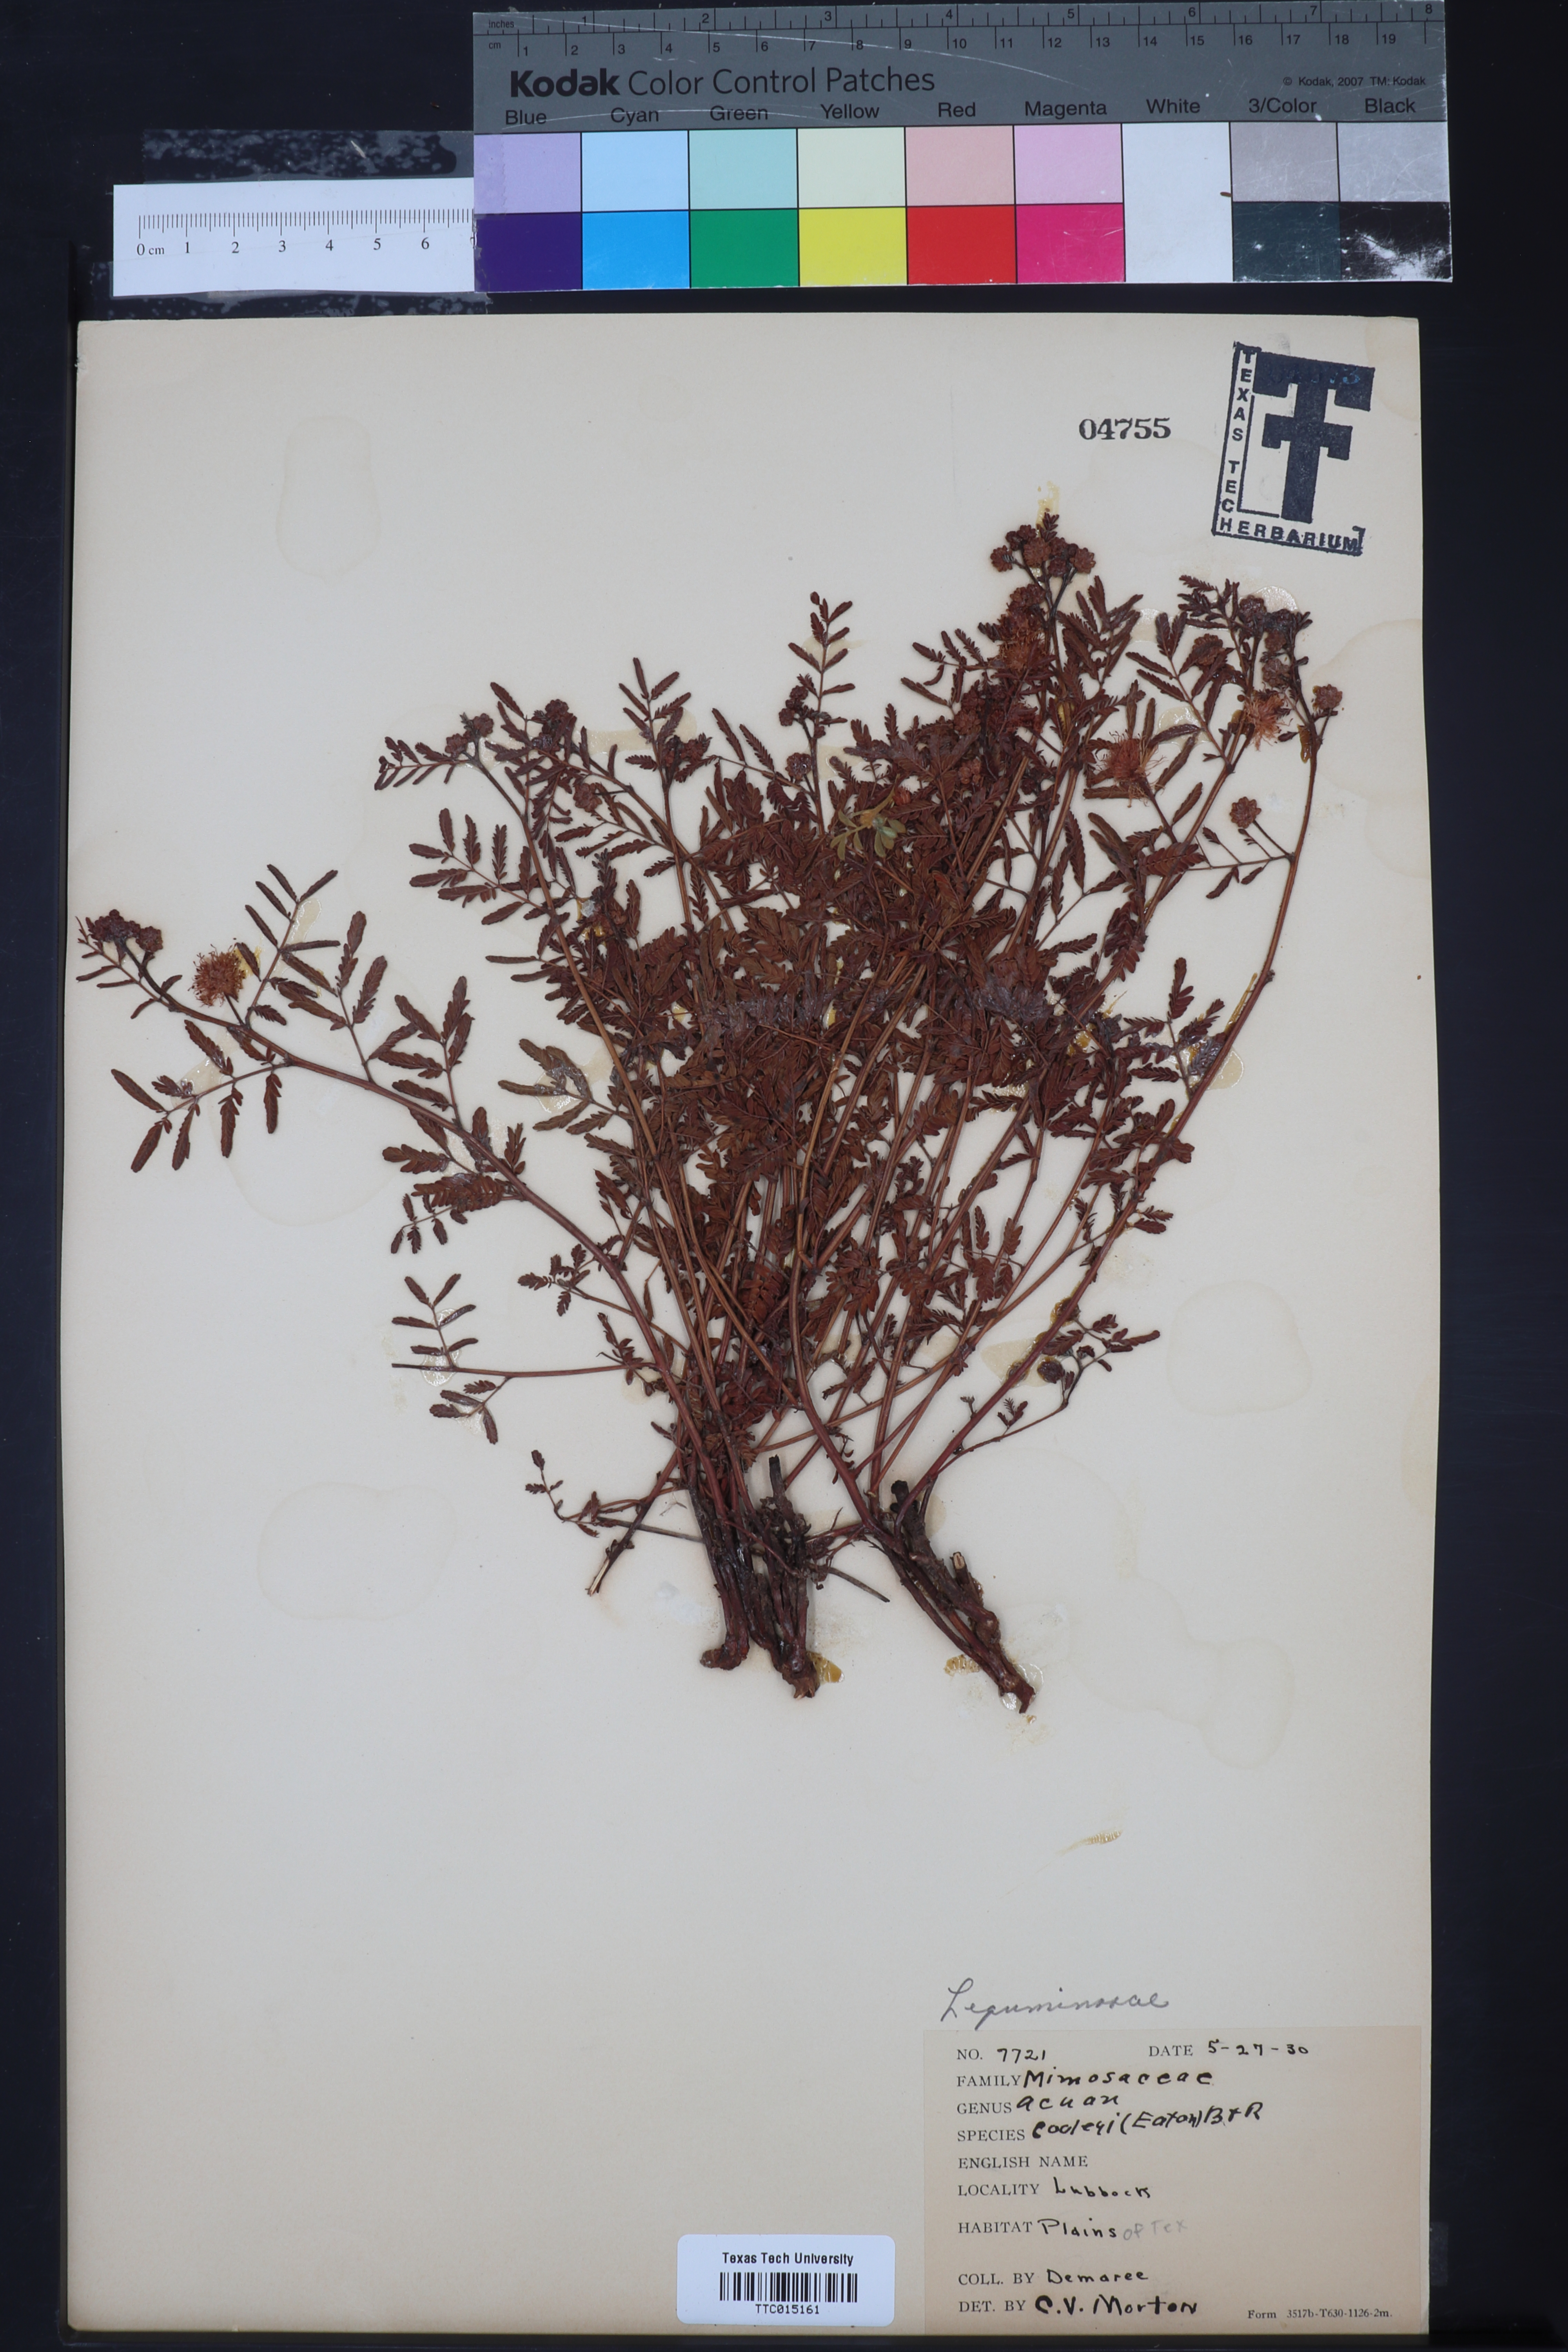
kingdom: Plantae
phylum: Tracheophyta
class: Magnoliopsida
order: Fabales
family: Fabaceae
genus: Desmanthus
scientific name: Desmanthus cooleyi
